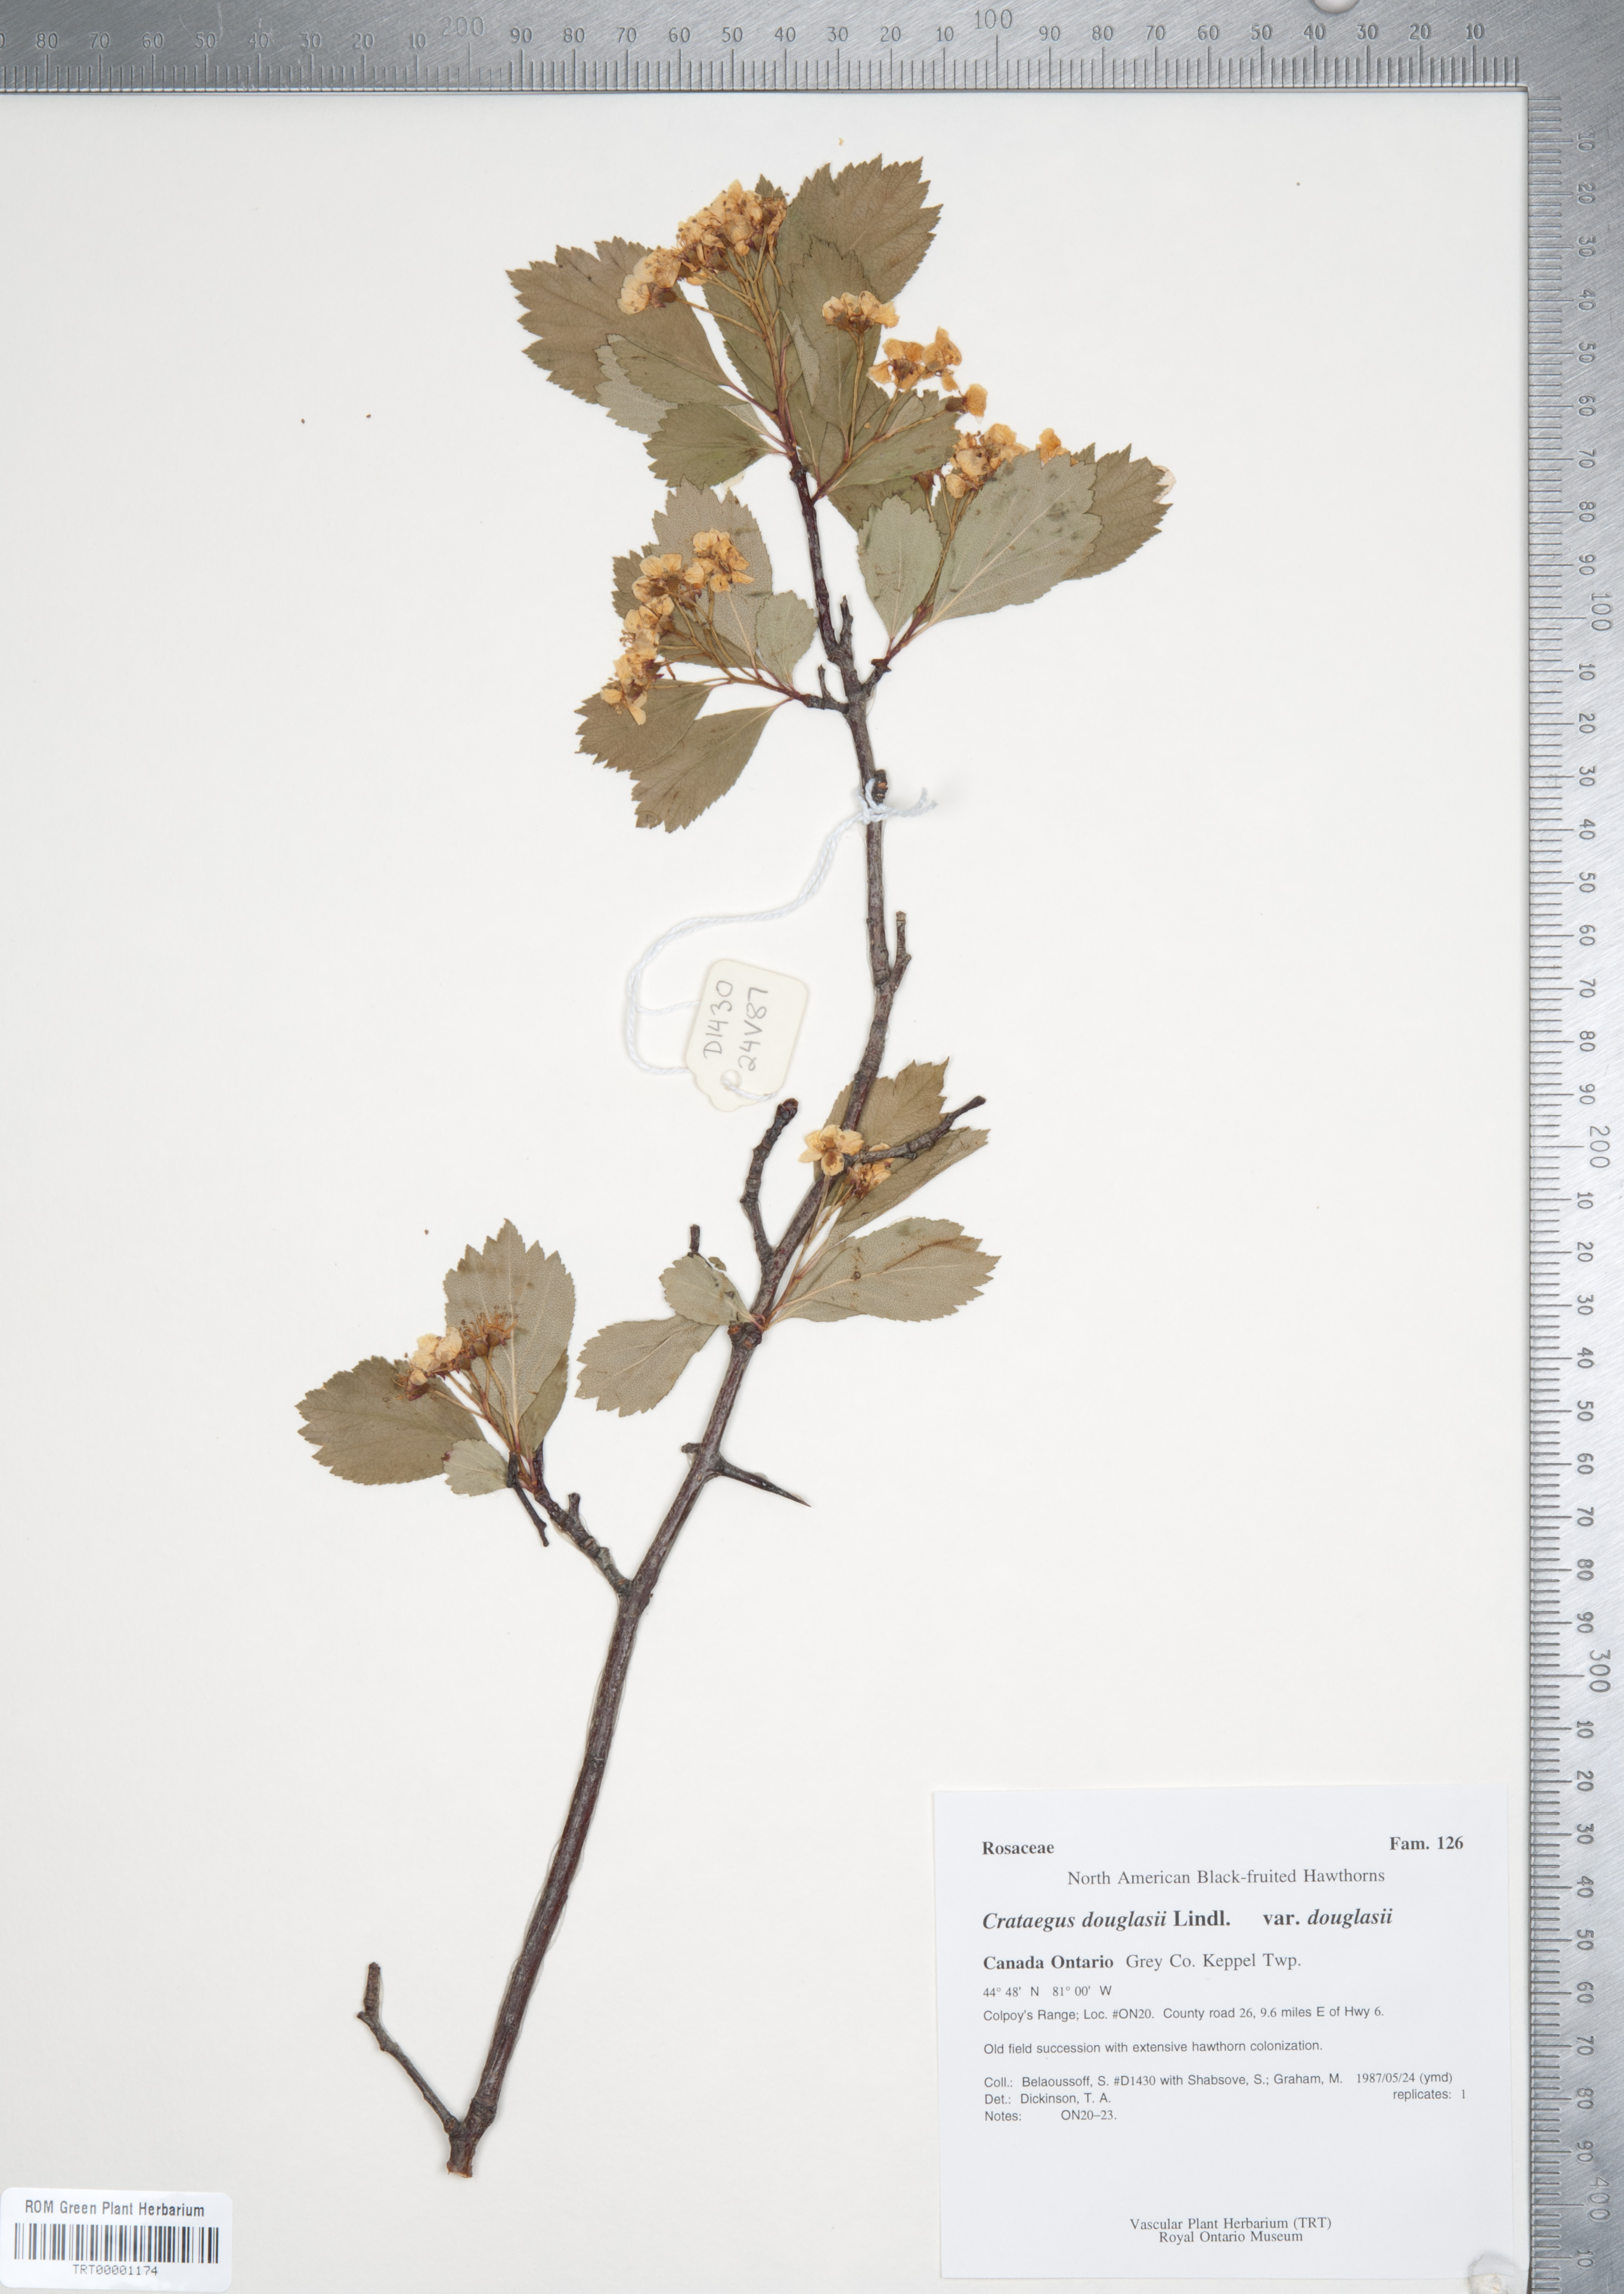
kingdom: Plantae
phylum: Tracheophyta
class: Magnoliopsida
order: Rosales
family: Rosaceae
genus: Crataegus
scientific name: Crataegus douglasii
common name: Black hawthorn
